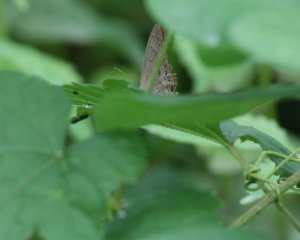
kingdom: Animalia
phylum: Arthropoda
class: Insecta
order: Lepidoptera
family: Nymphalidae
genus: Lethe
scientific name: Lethe eurydice
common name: Appalachian Eyed Brown
